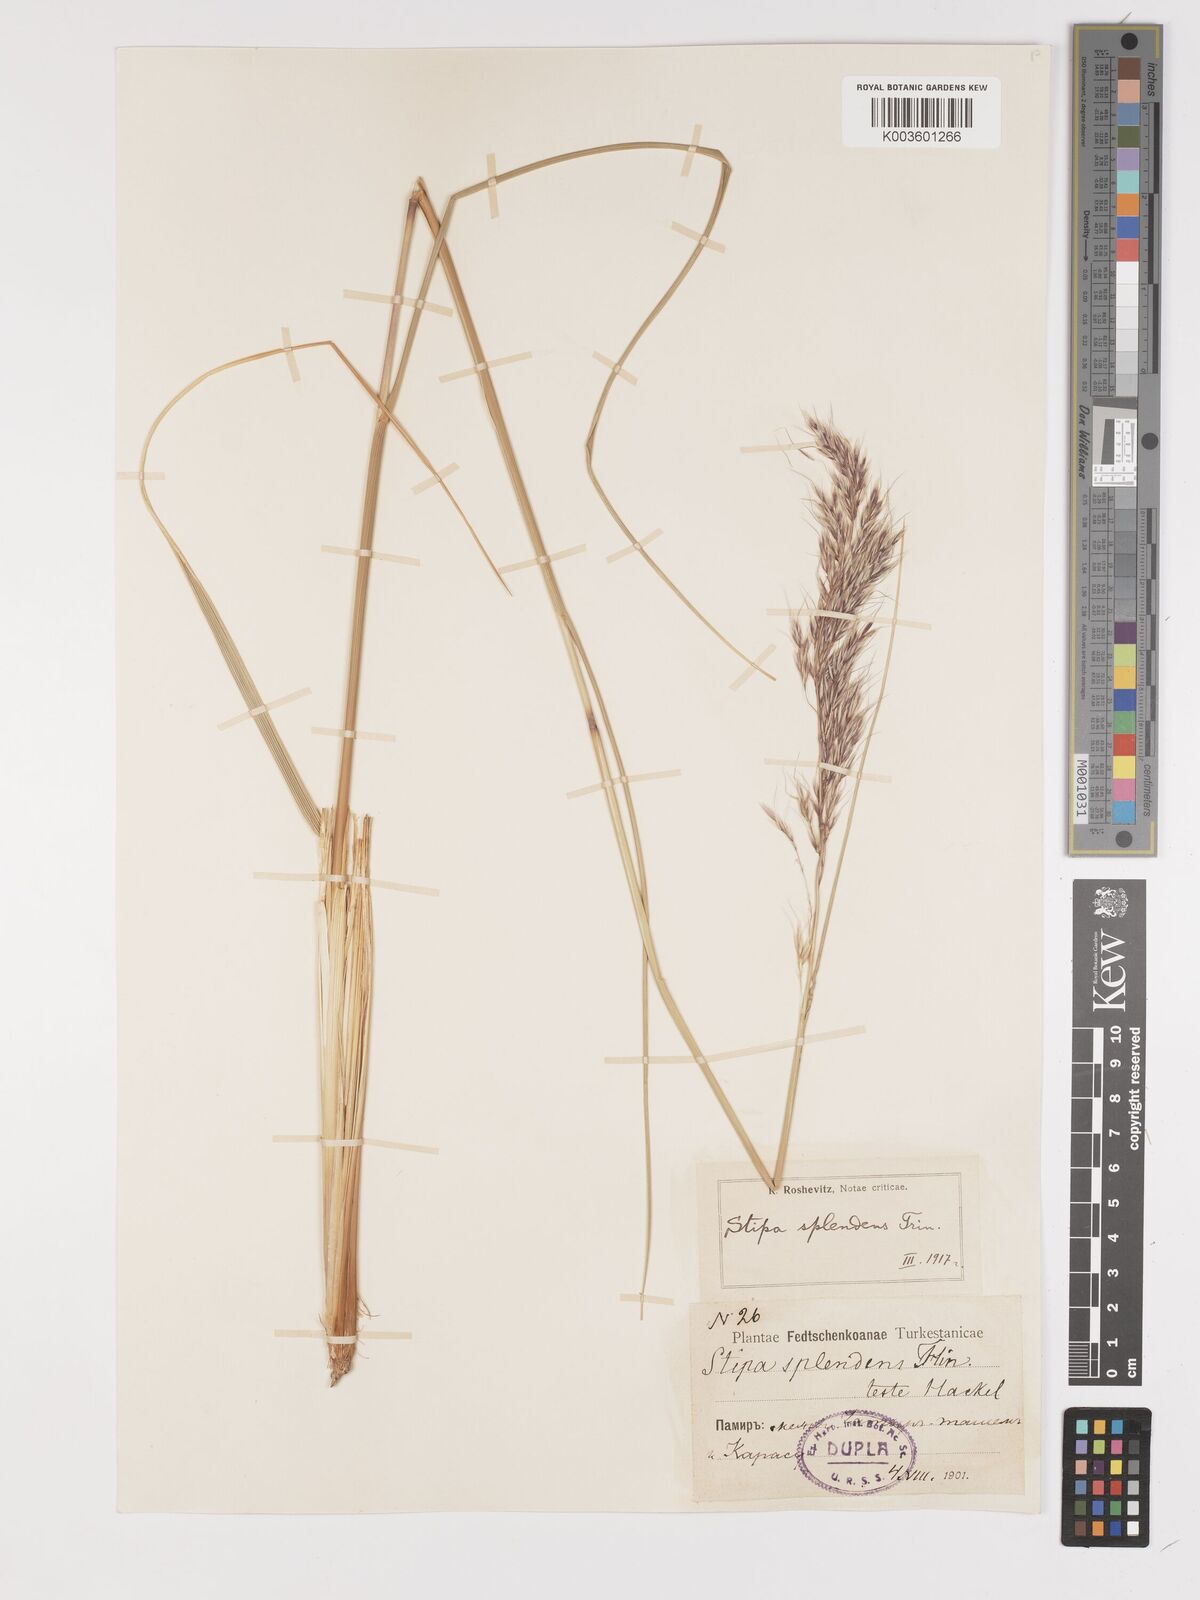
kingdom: Plantae
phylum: Tracheophyta
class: Liliopsida
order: Poales
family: Poaceae
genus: Neotrinia
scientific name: Neotrinia splendens
